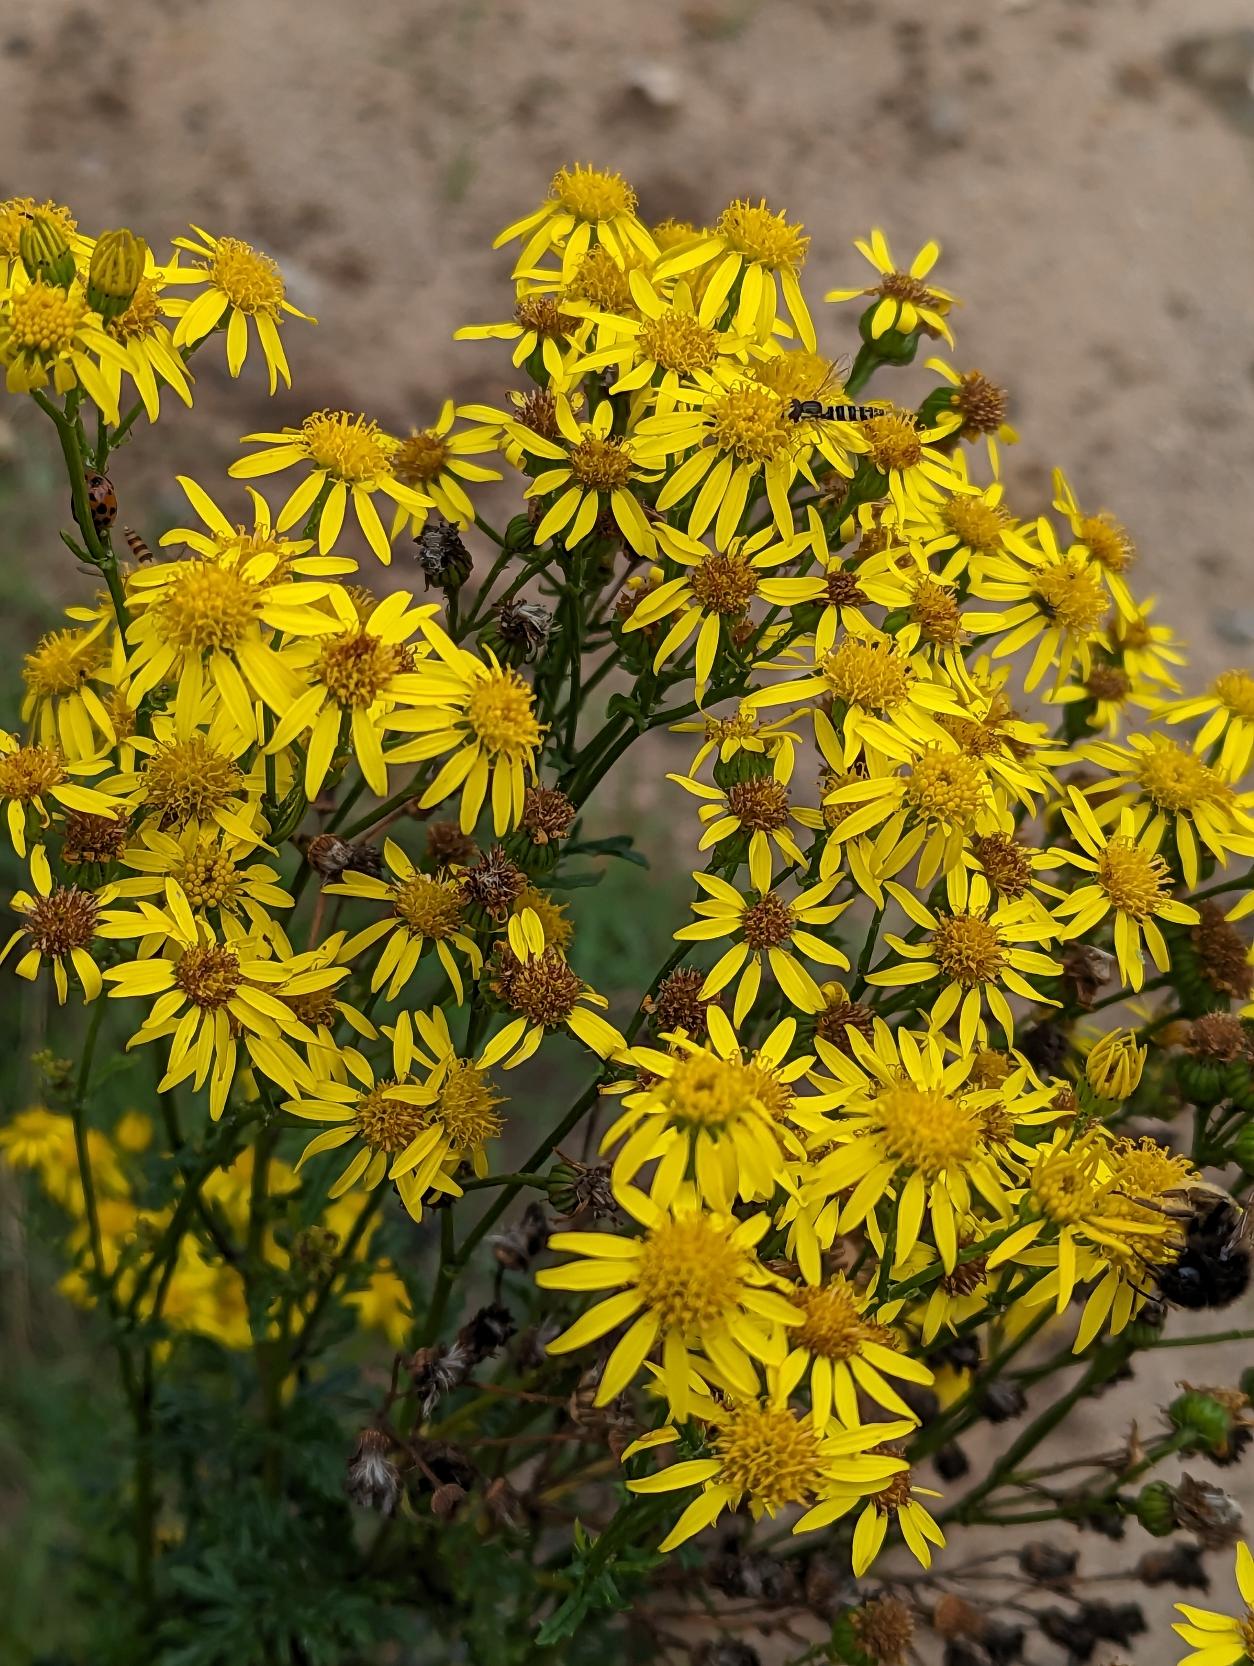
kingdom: Plantae
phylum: Tracheophyta
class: Magnoliopsida
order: Asterales
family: Asteraceae
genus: Jacobaea
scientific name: Jacobaea vulgaris
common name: Eng-brandbæger
